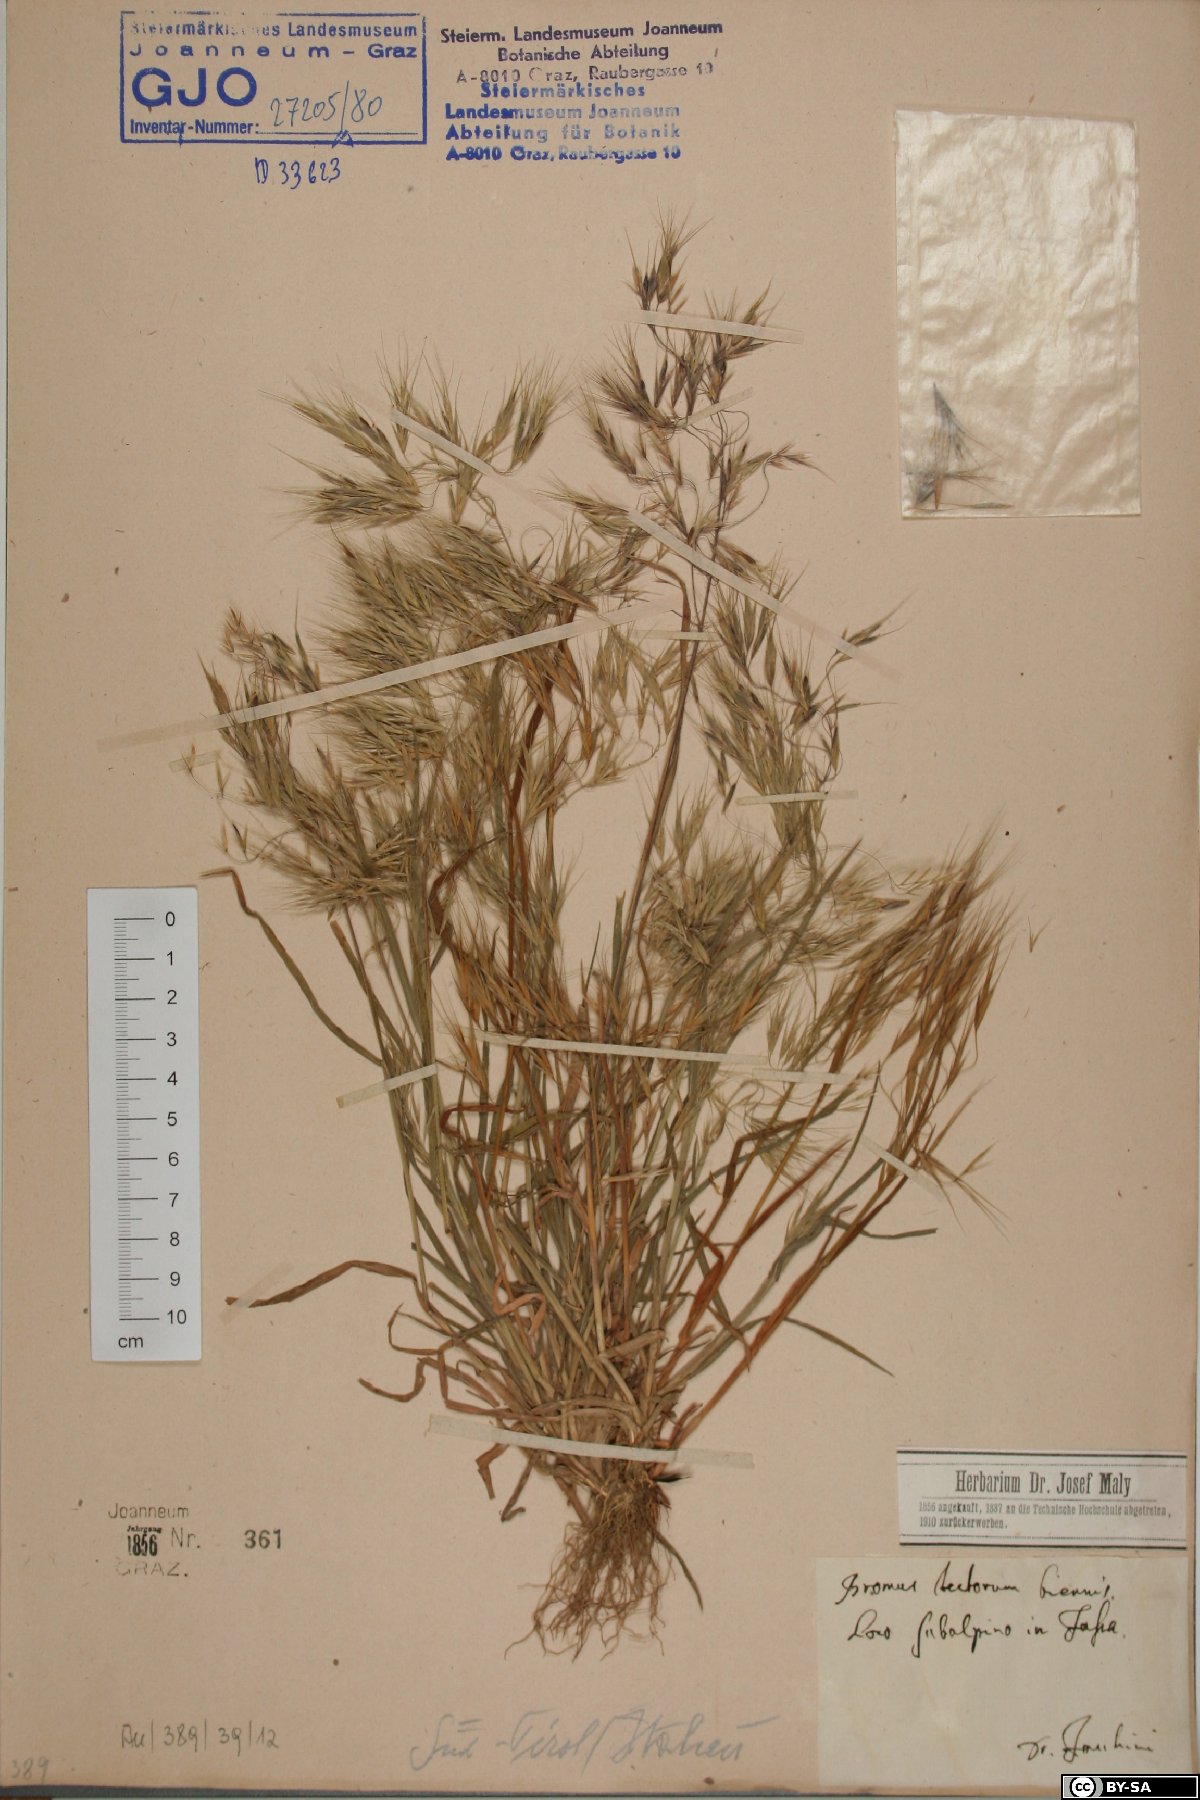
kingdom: Plantae
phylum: Tracheophyta
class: Liliopsida
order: Poales
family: Poaceae
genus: Bromus
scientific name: Bromus tectorum
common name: Cheatgrass
